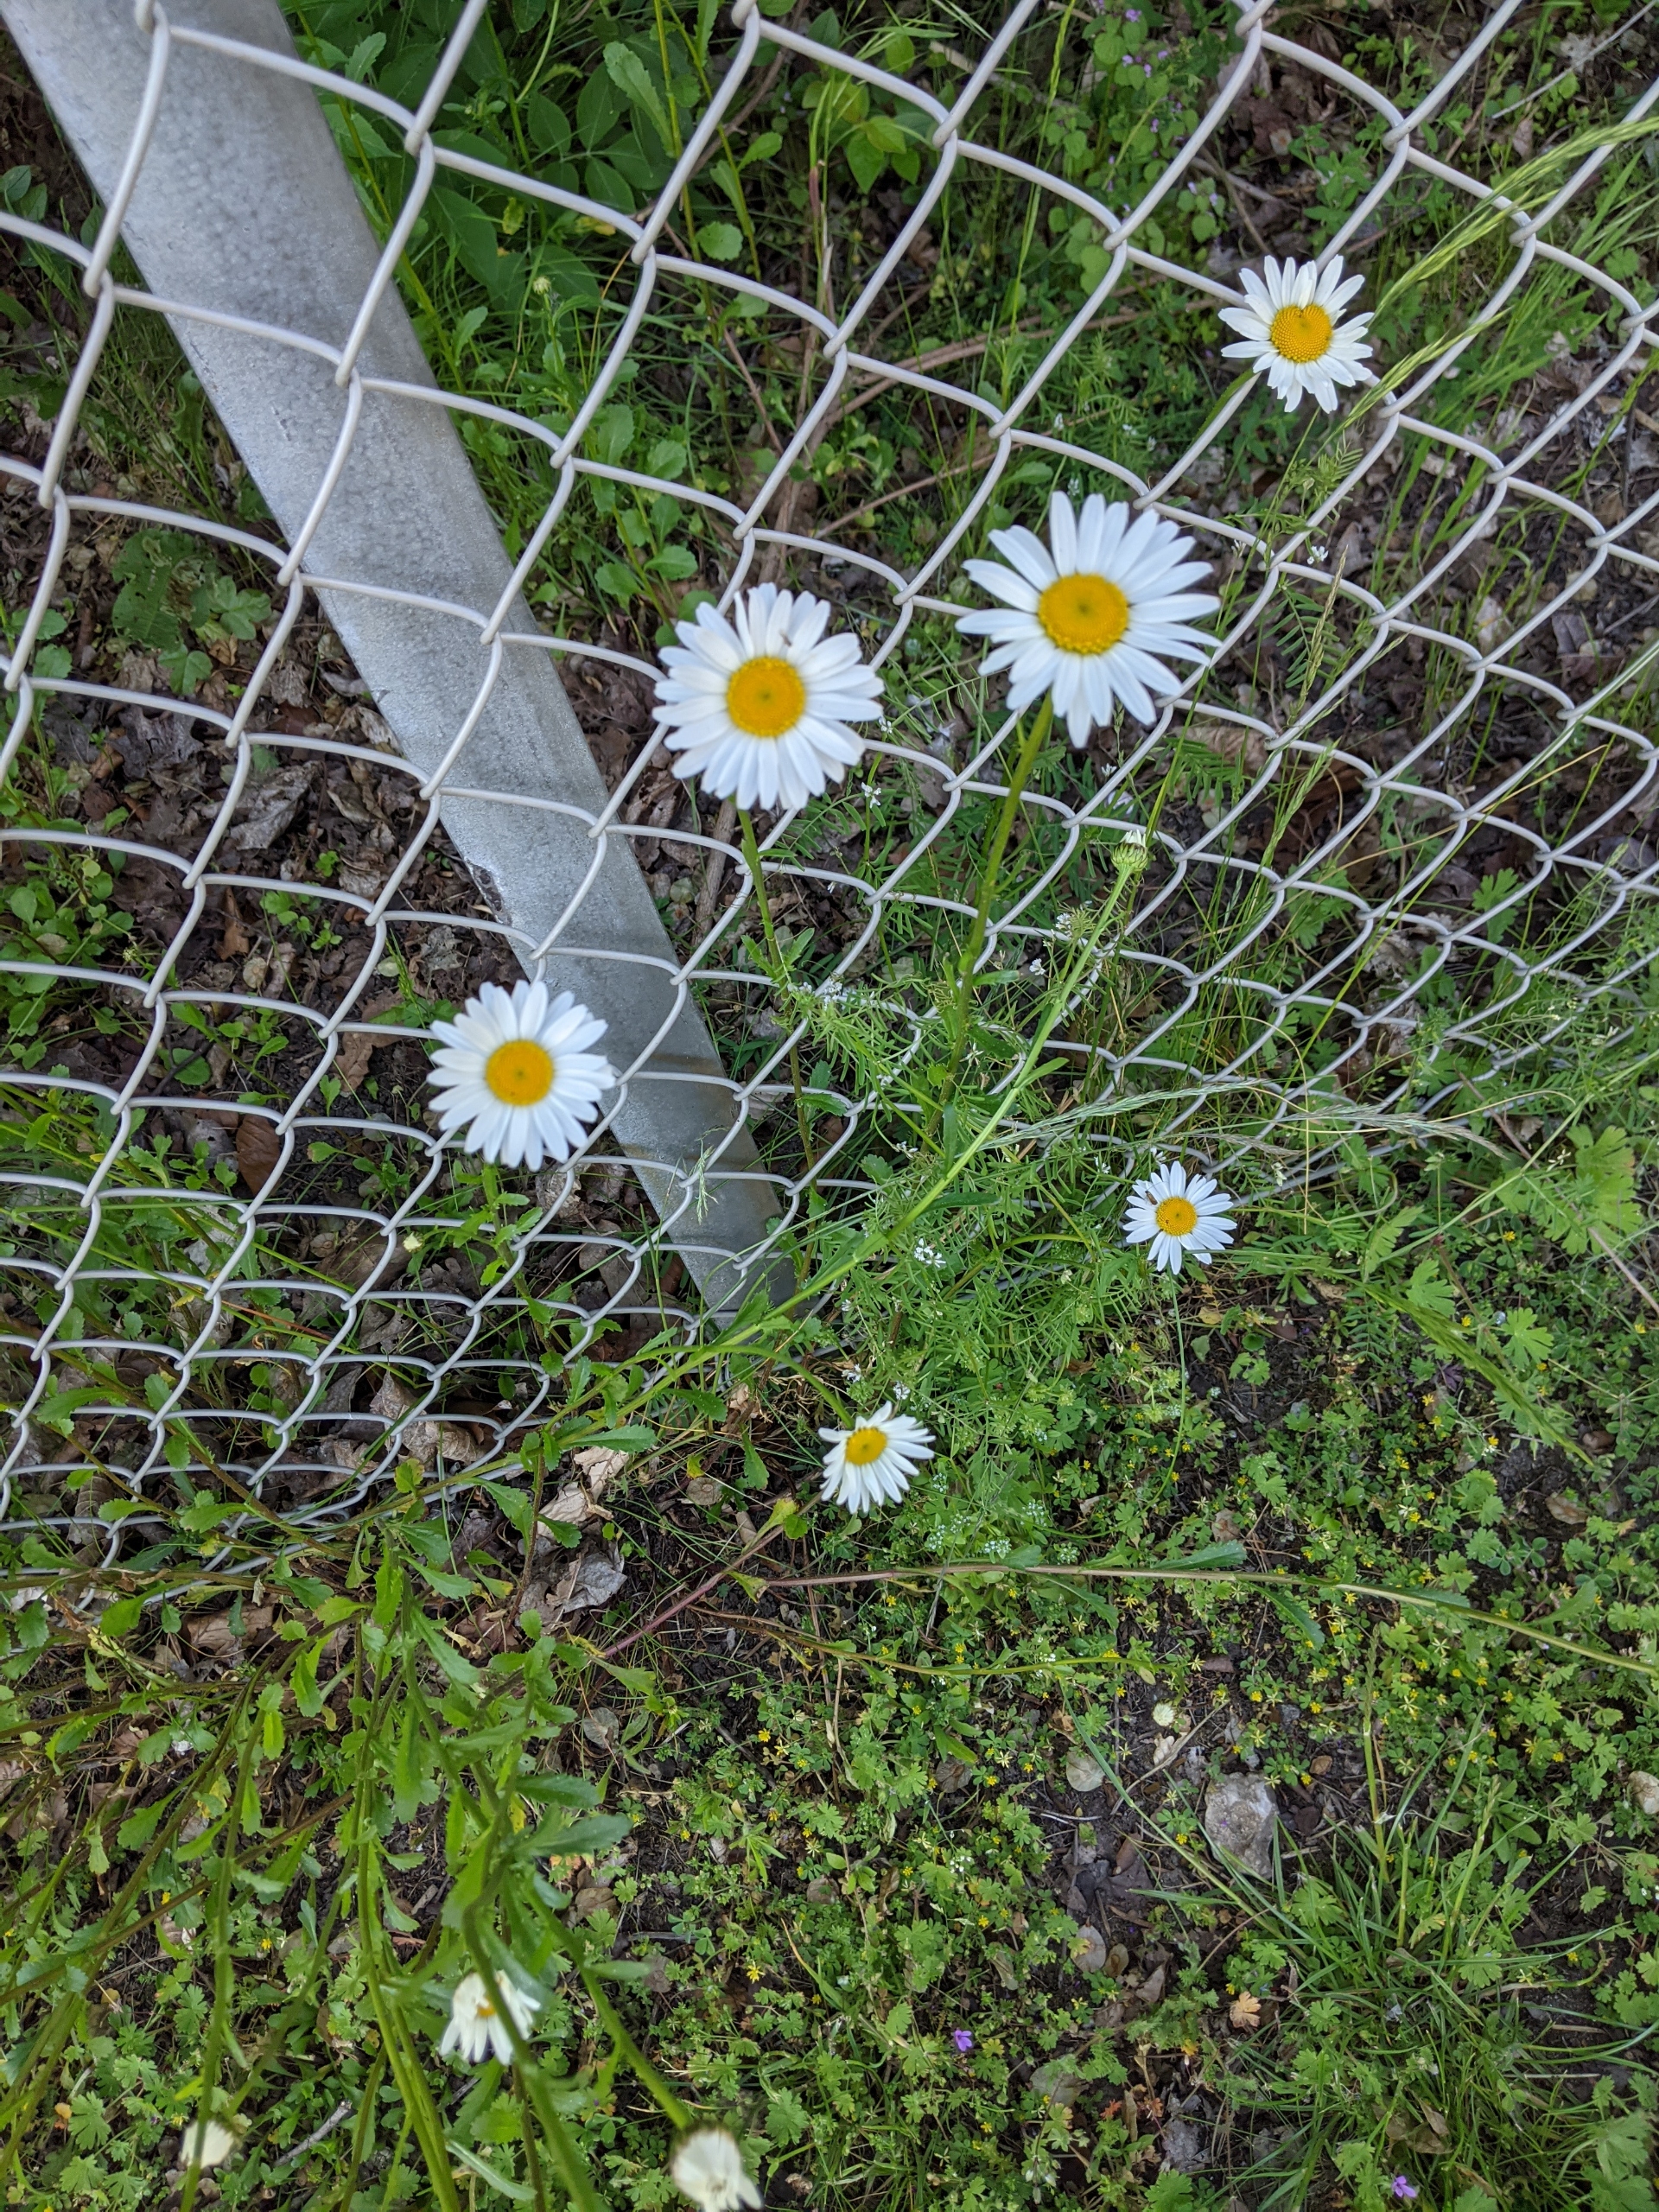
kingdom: Plantae
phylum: Tracheophyta
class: Magnoliopsida
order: Asterales
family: Asteraceae
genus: Leucanthemum
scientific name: Leucanthemum vulgare
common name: Hvid okseøje
